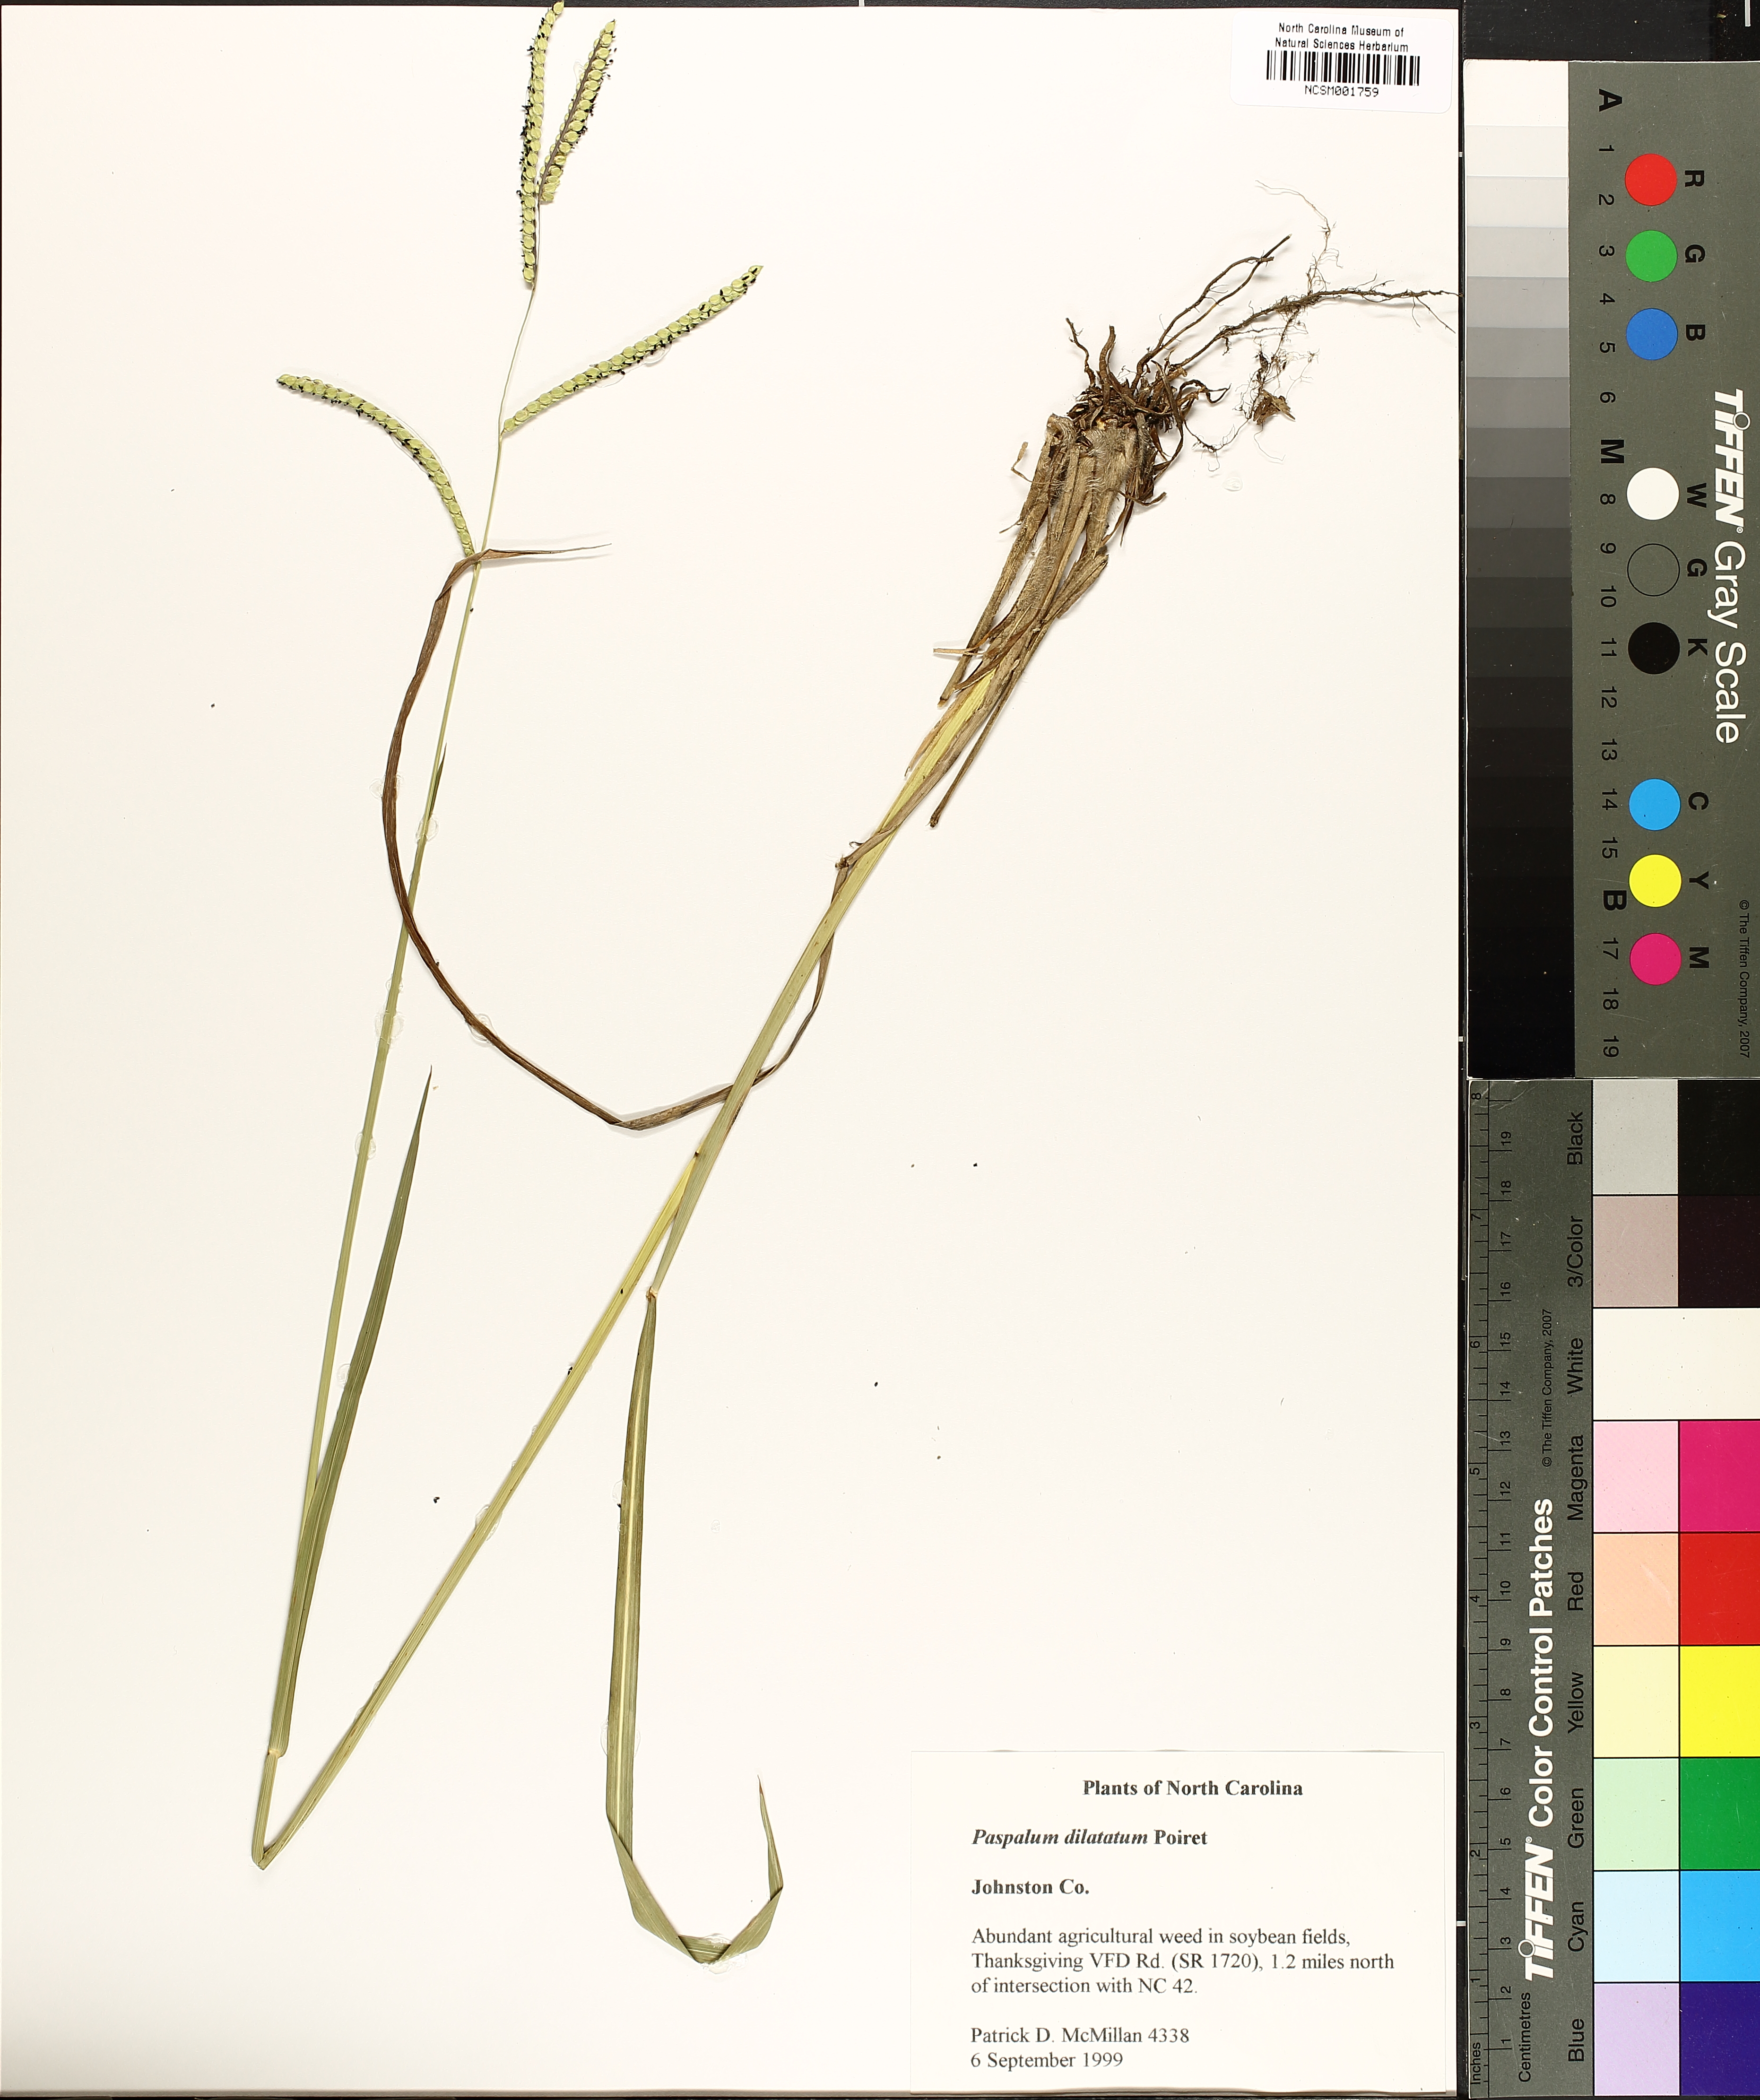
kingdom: Plantae
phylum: Tracheophyta
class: Liliopsida
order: Poales
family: Poaceae
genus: Paspalum
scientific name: Paspalum dilatatum
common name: Dallisgrass
